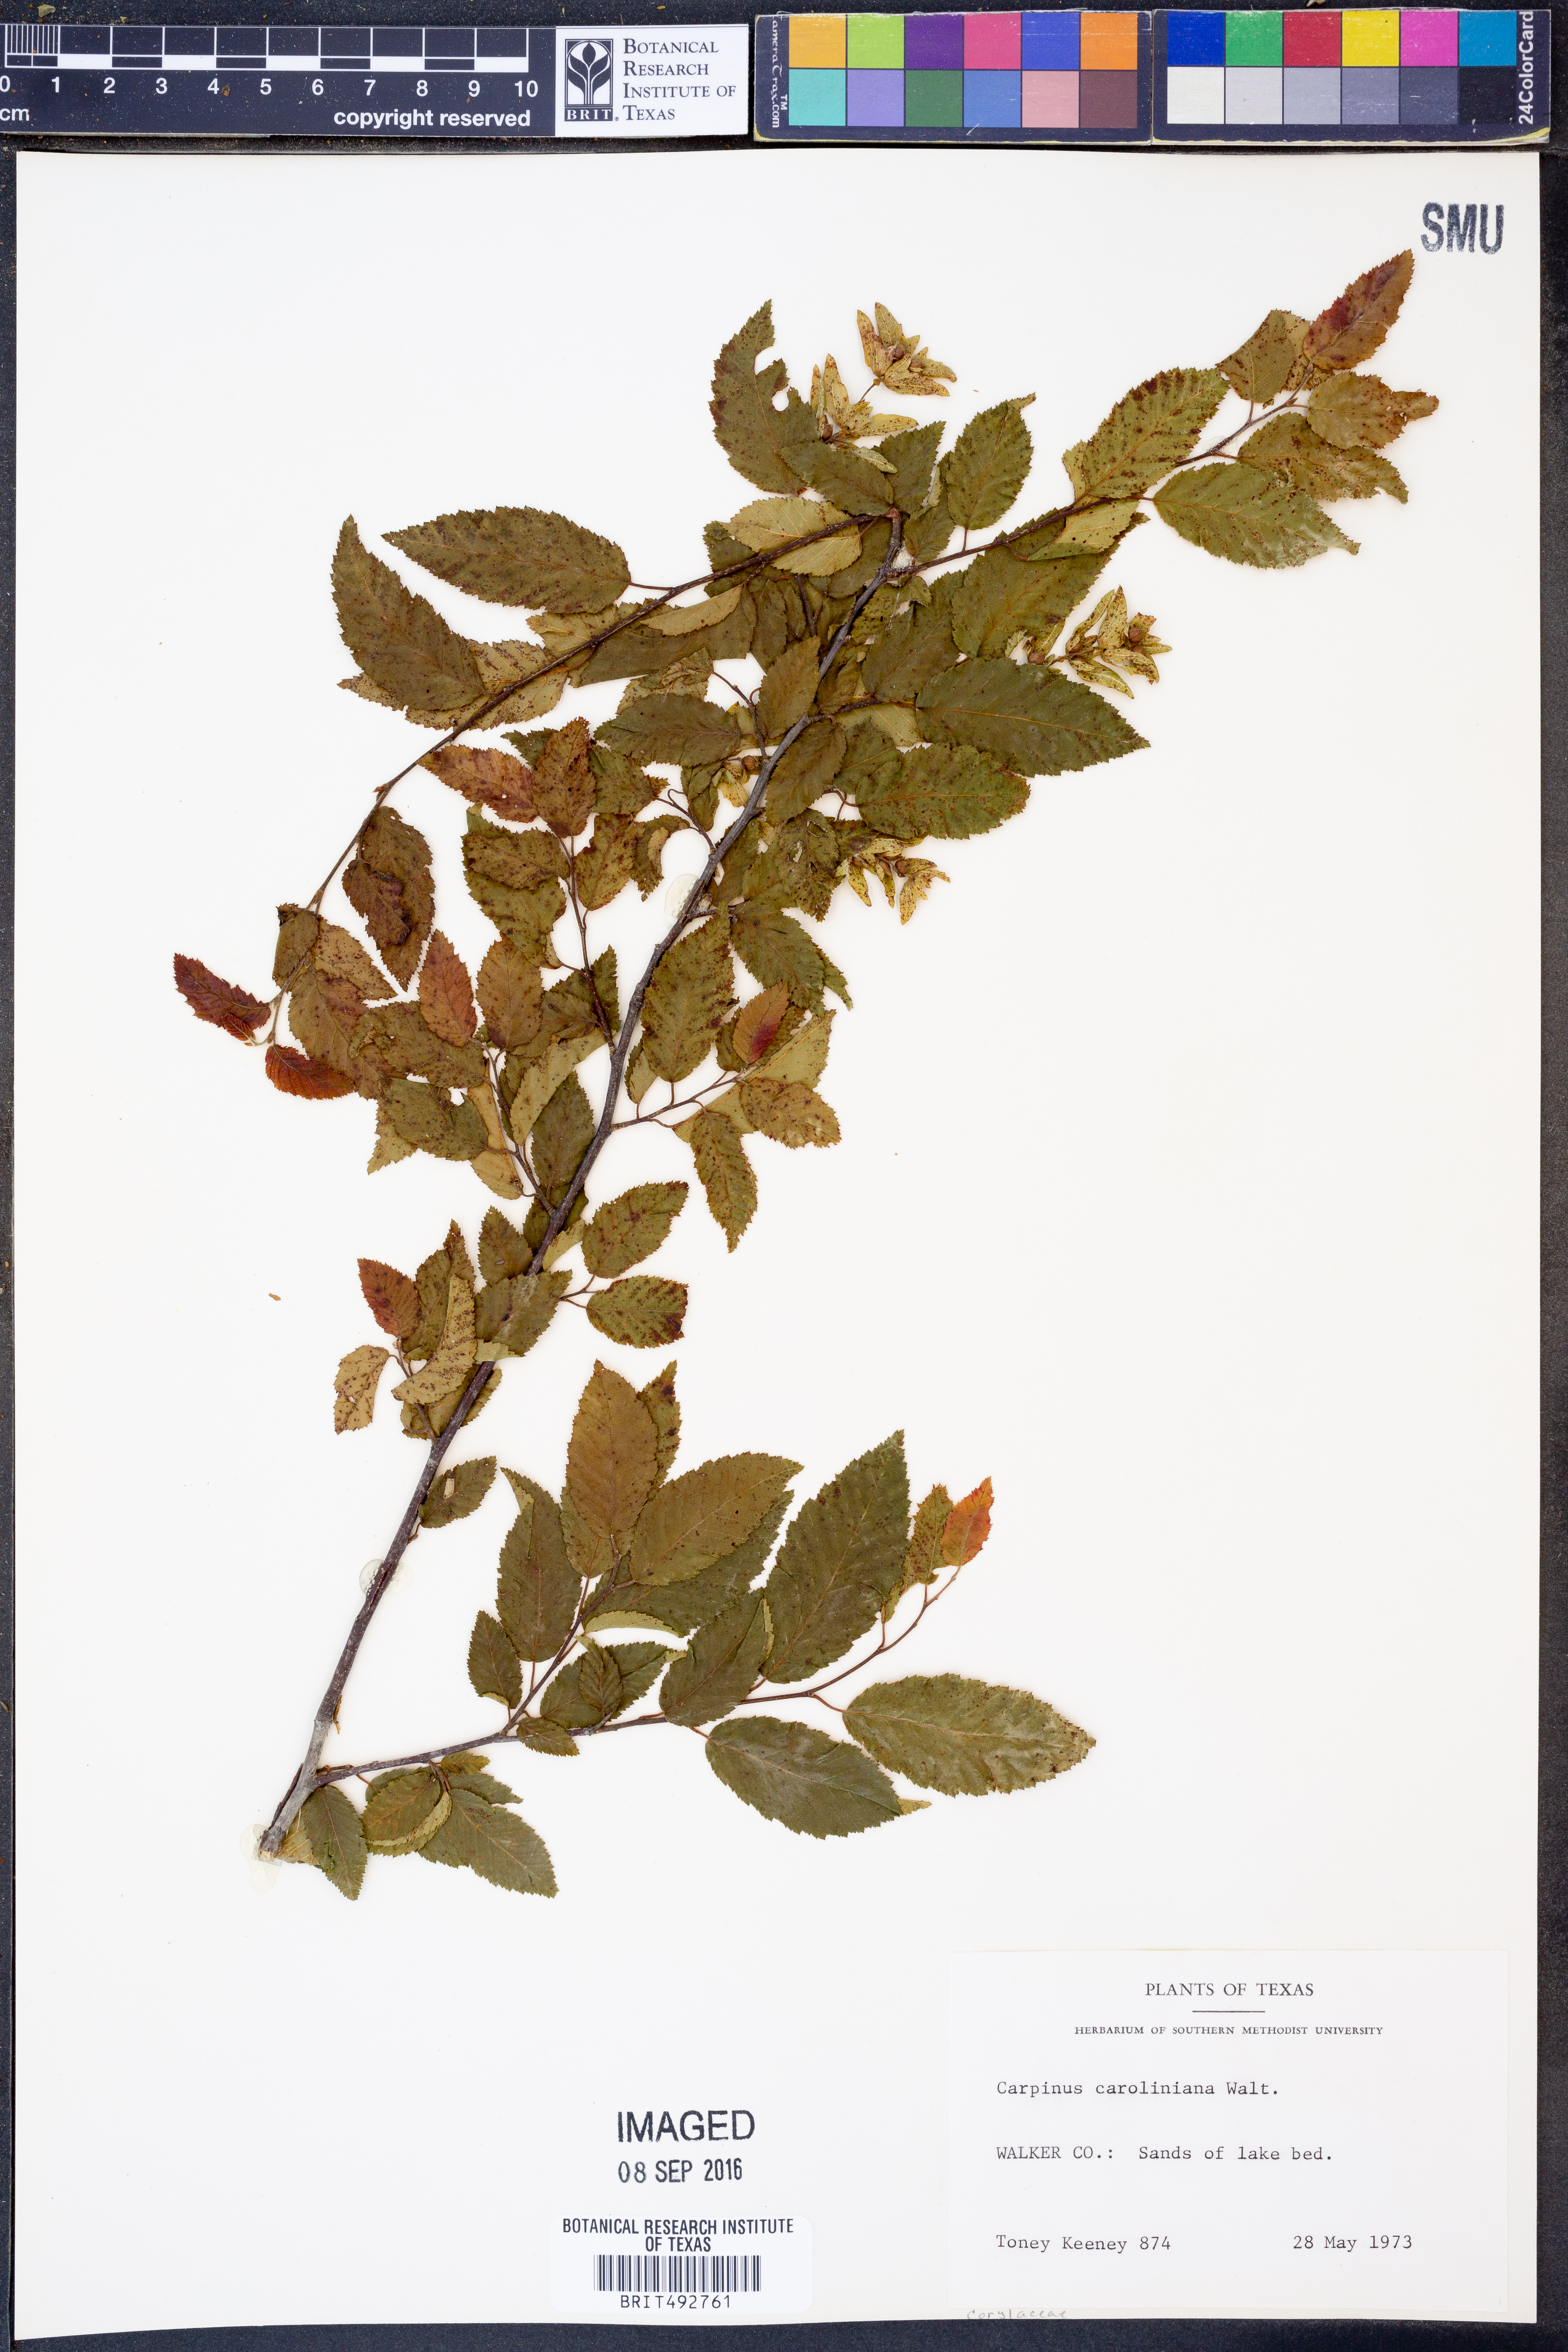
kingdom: Plantae
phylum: Tracheophyta
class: Magnoliopsida
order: Fagales
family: Betulaceae
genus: Carpinus
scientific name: Carpinus caroliniana
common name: American hornbeam
